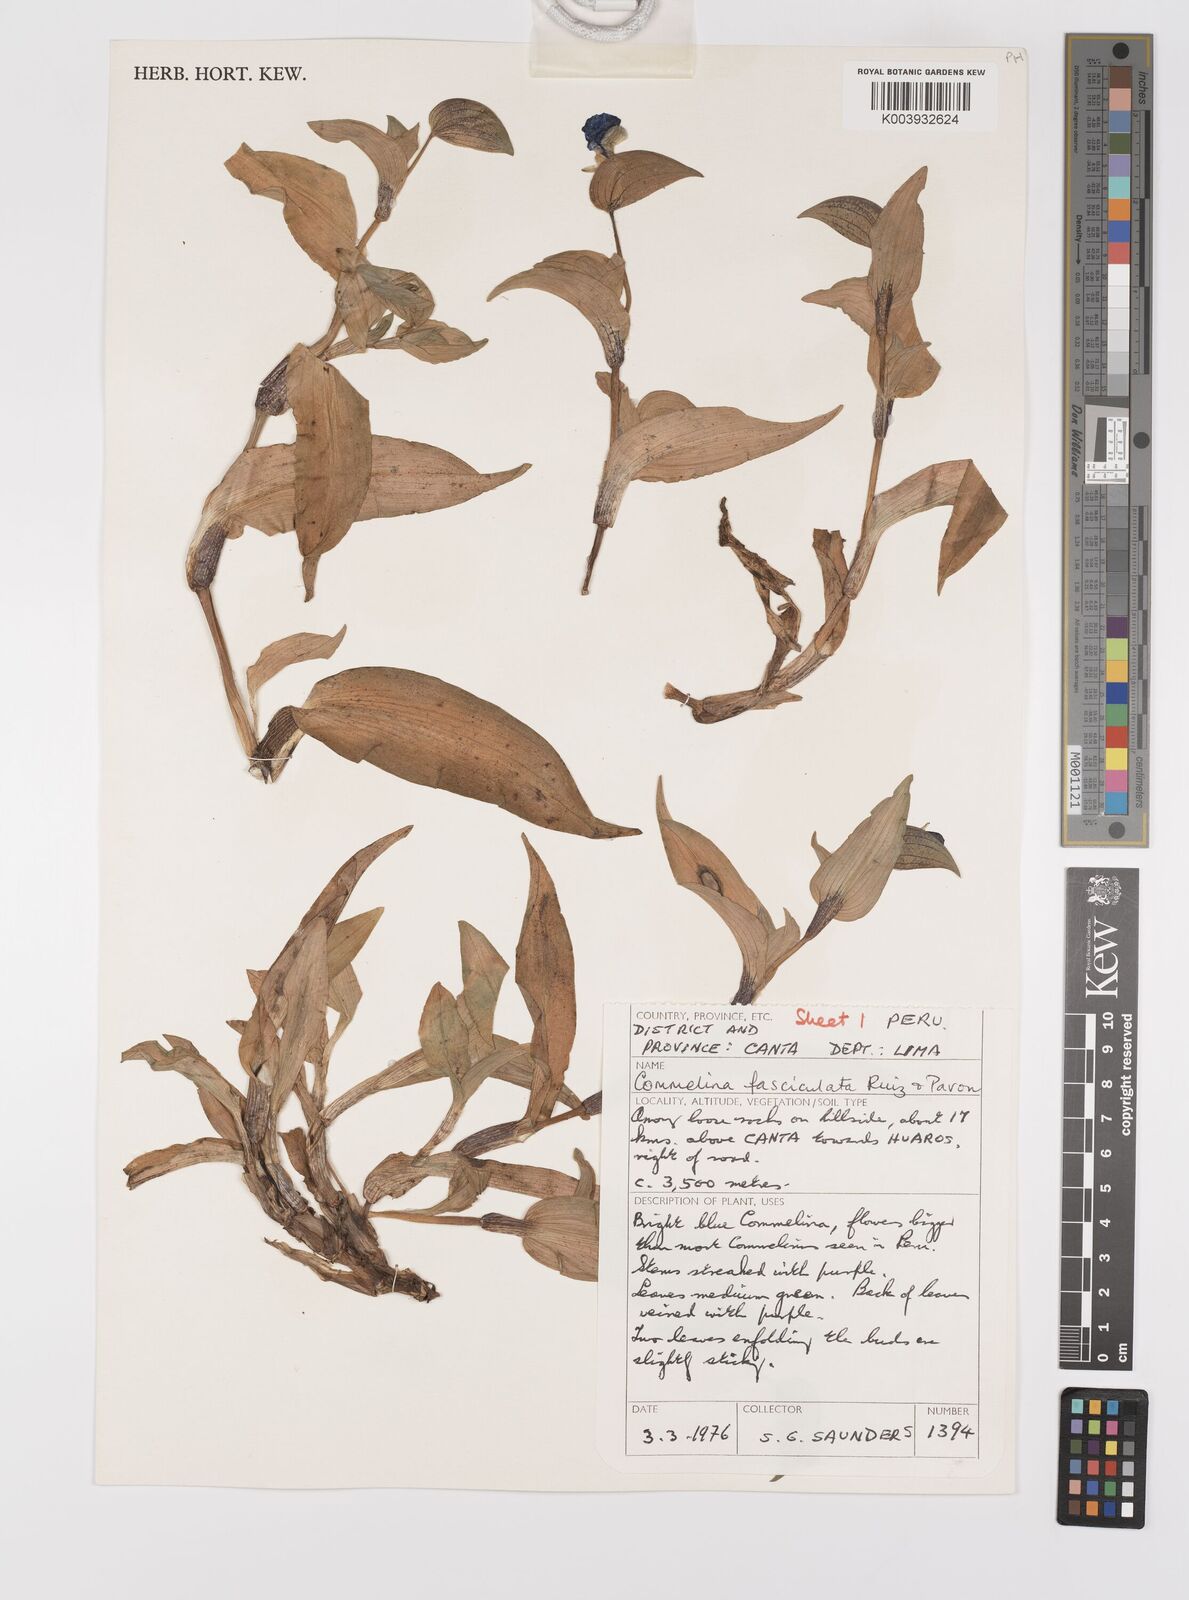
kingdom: Plantae
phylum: Tracheophyta
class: Liliopsida
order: Commelinales
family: Commelinaceae
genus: Commelina
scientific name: Commelina tuberosa
